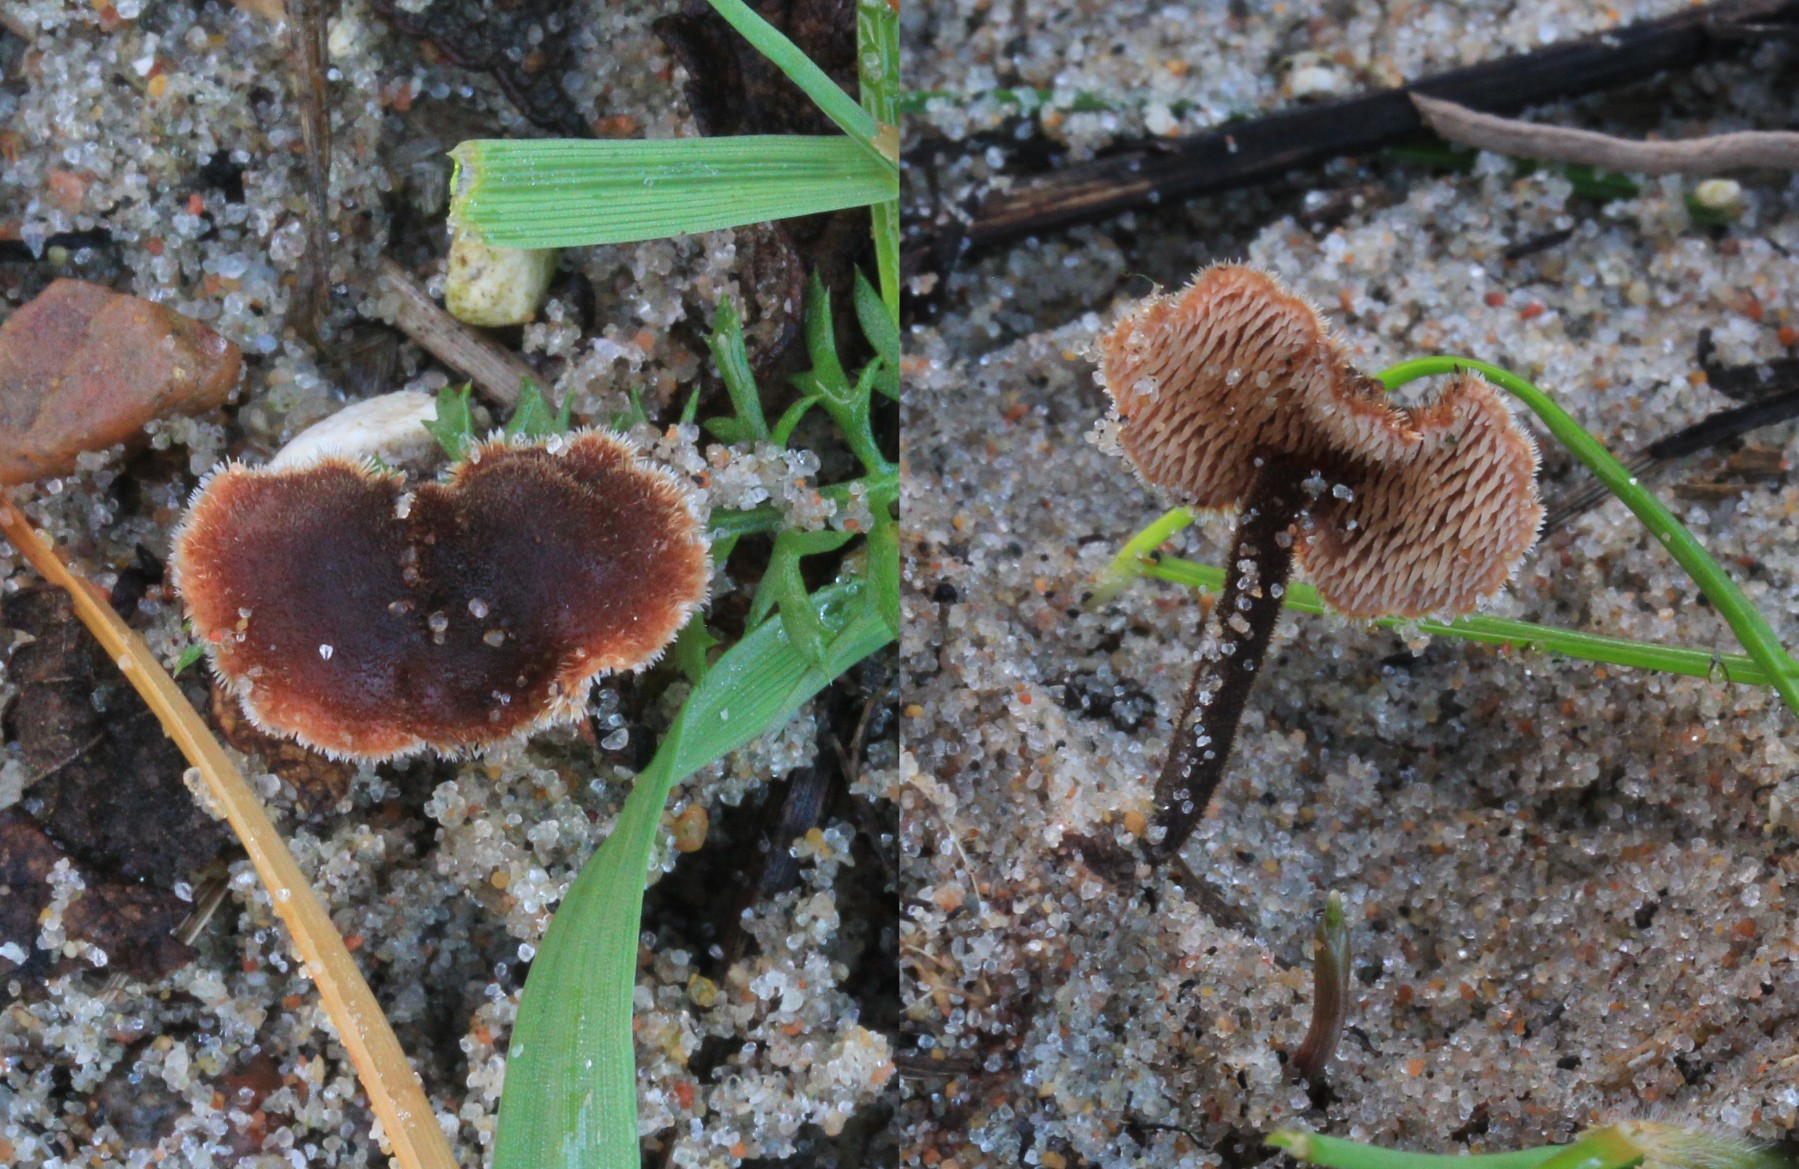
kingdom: Fungi
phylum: Basidiomycota
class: Agaricomycetes
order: Russulales
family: Auriscalpiaceae
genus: Auriscalpium
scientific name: Auriscalpium vulgare
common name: koglepigsvamp
